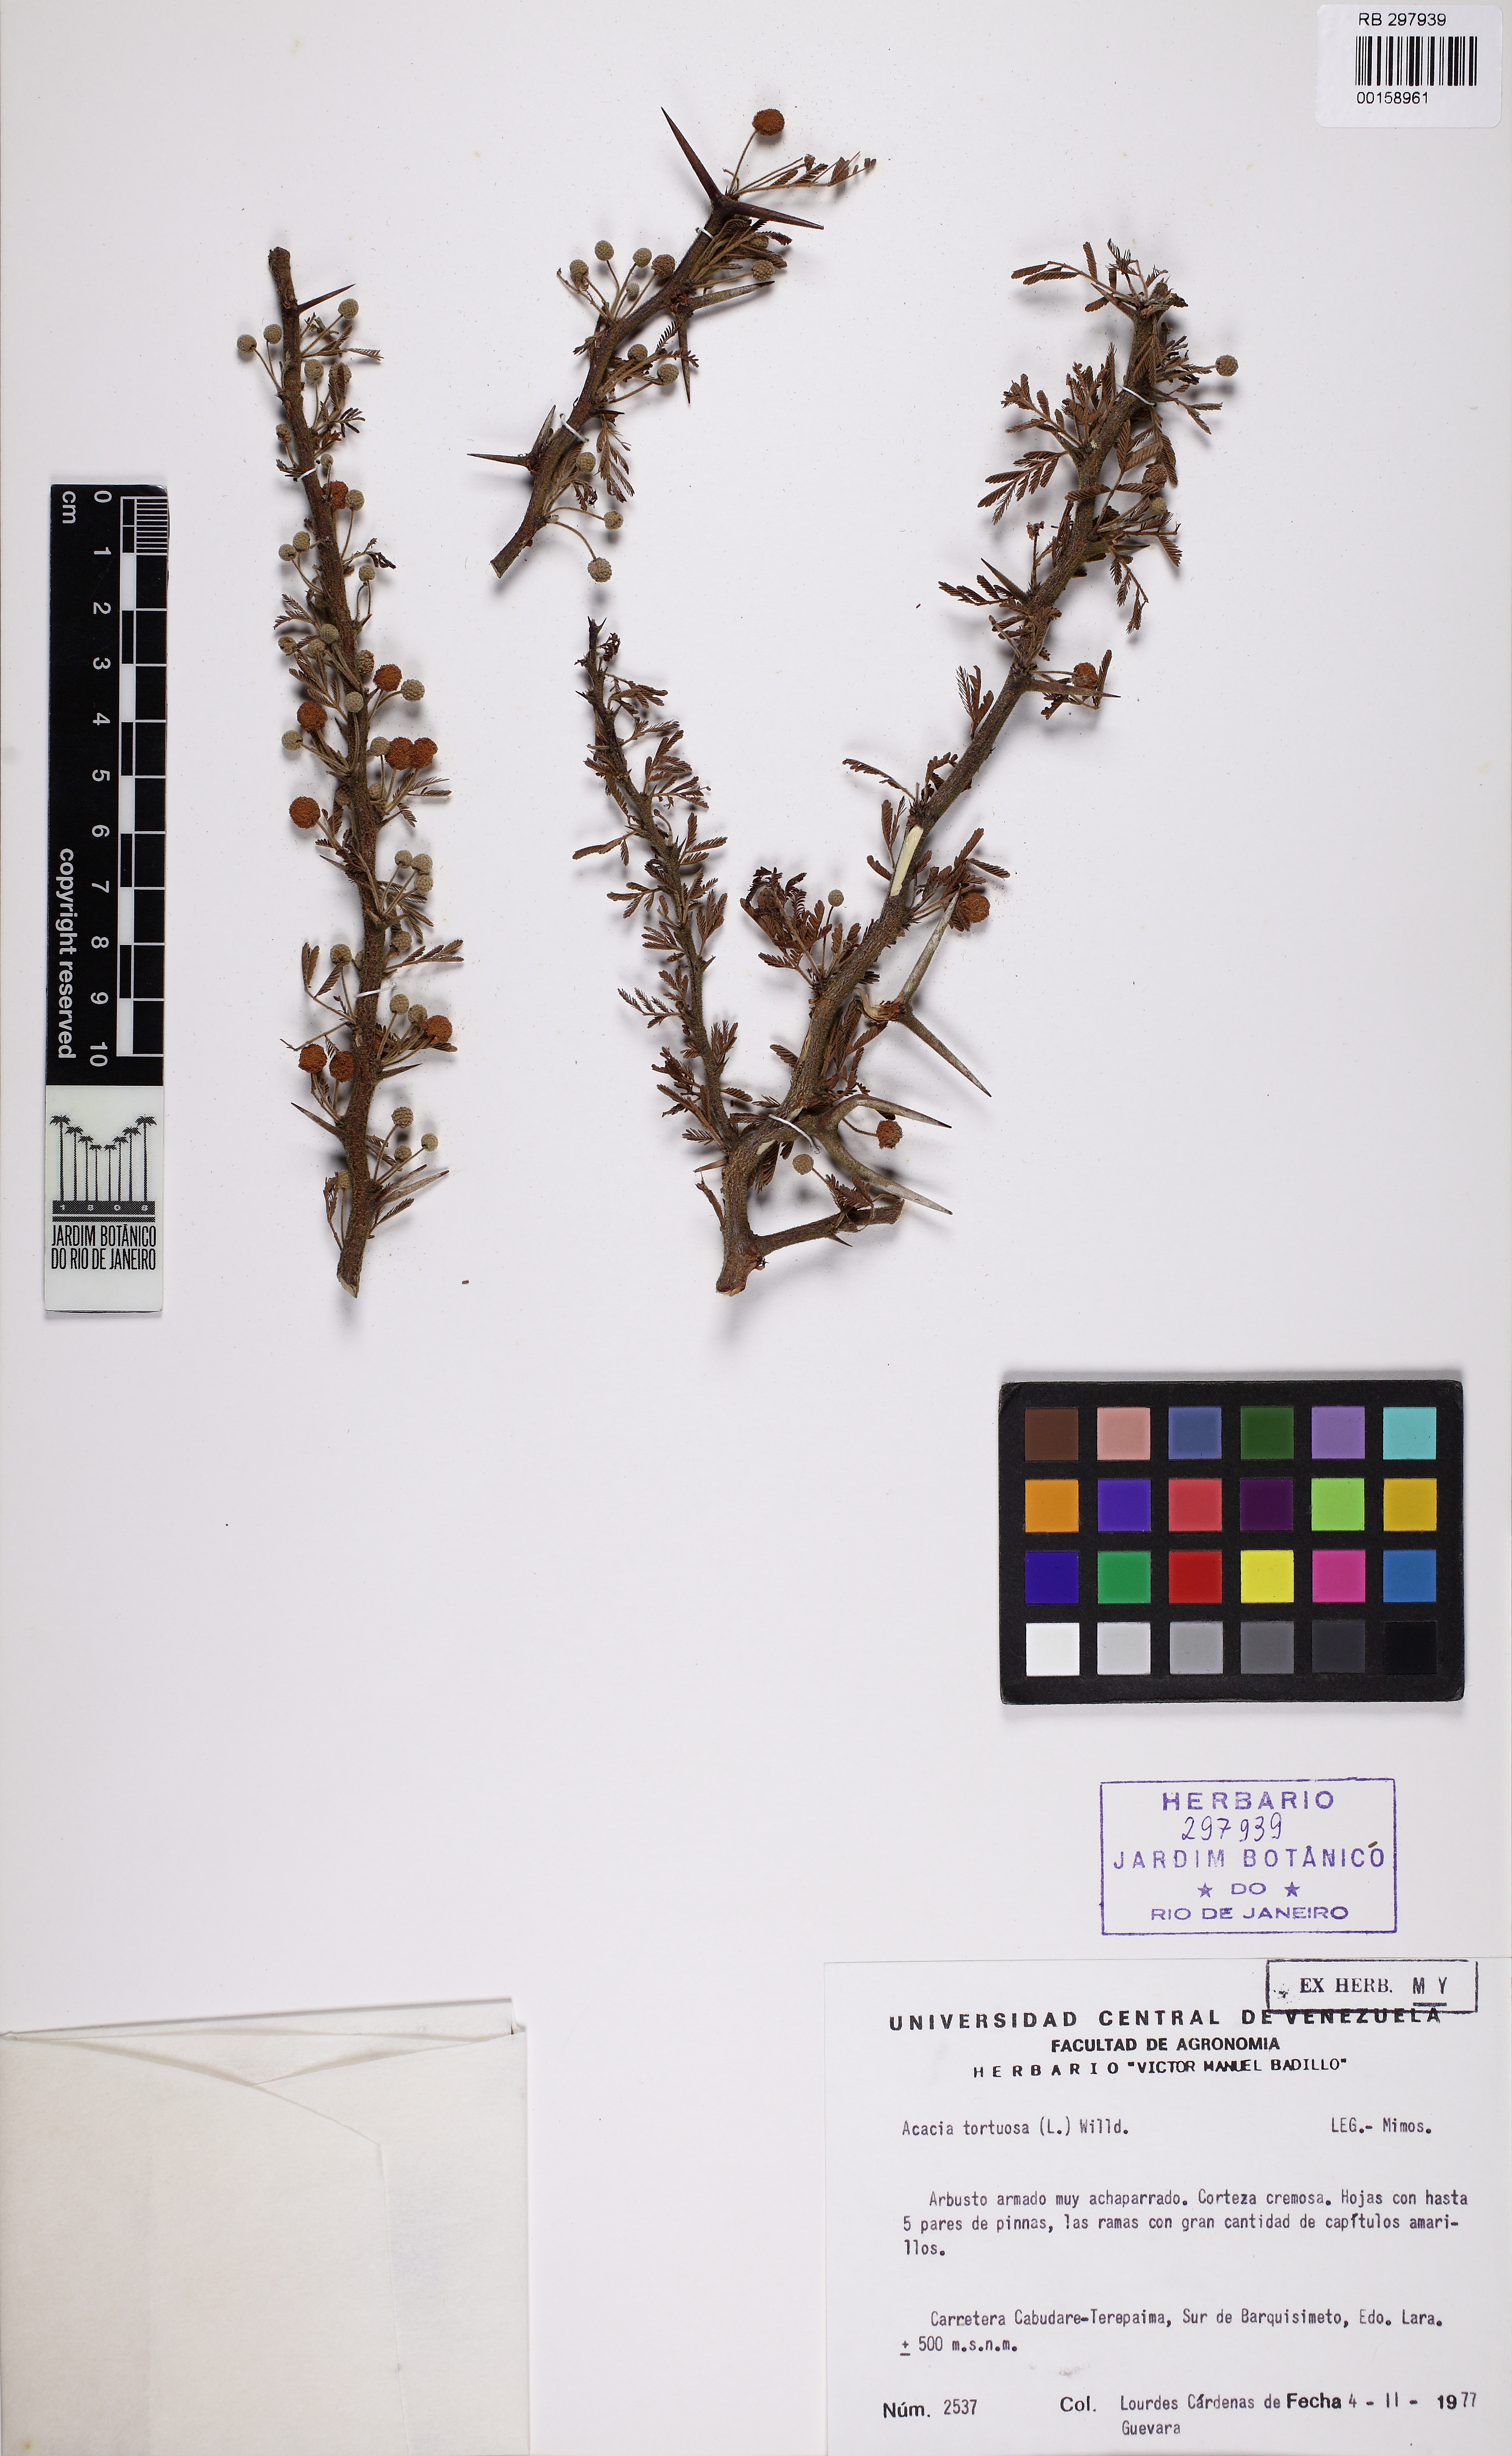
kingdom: Plantae
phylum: Tracheophyta
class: Magnoliopsida
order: Fabales
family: Fabaceae
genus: Vachellia
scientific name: Vachellia tortuosa
